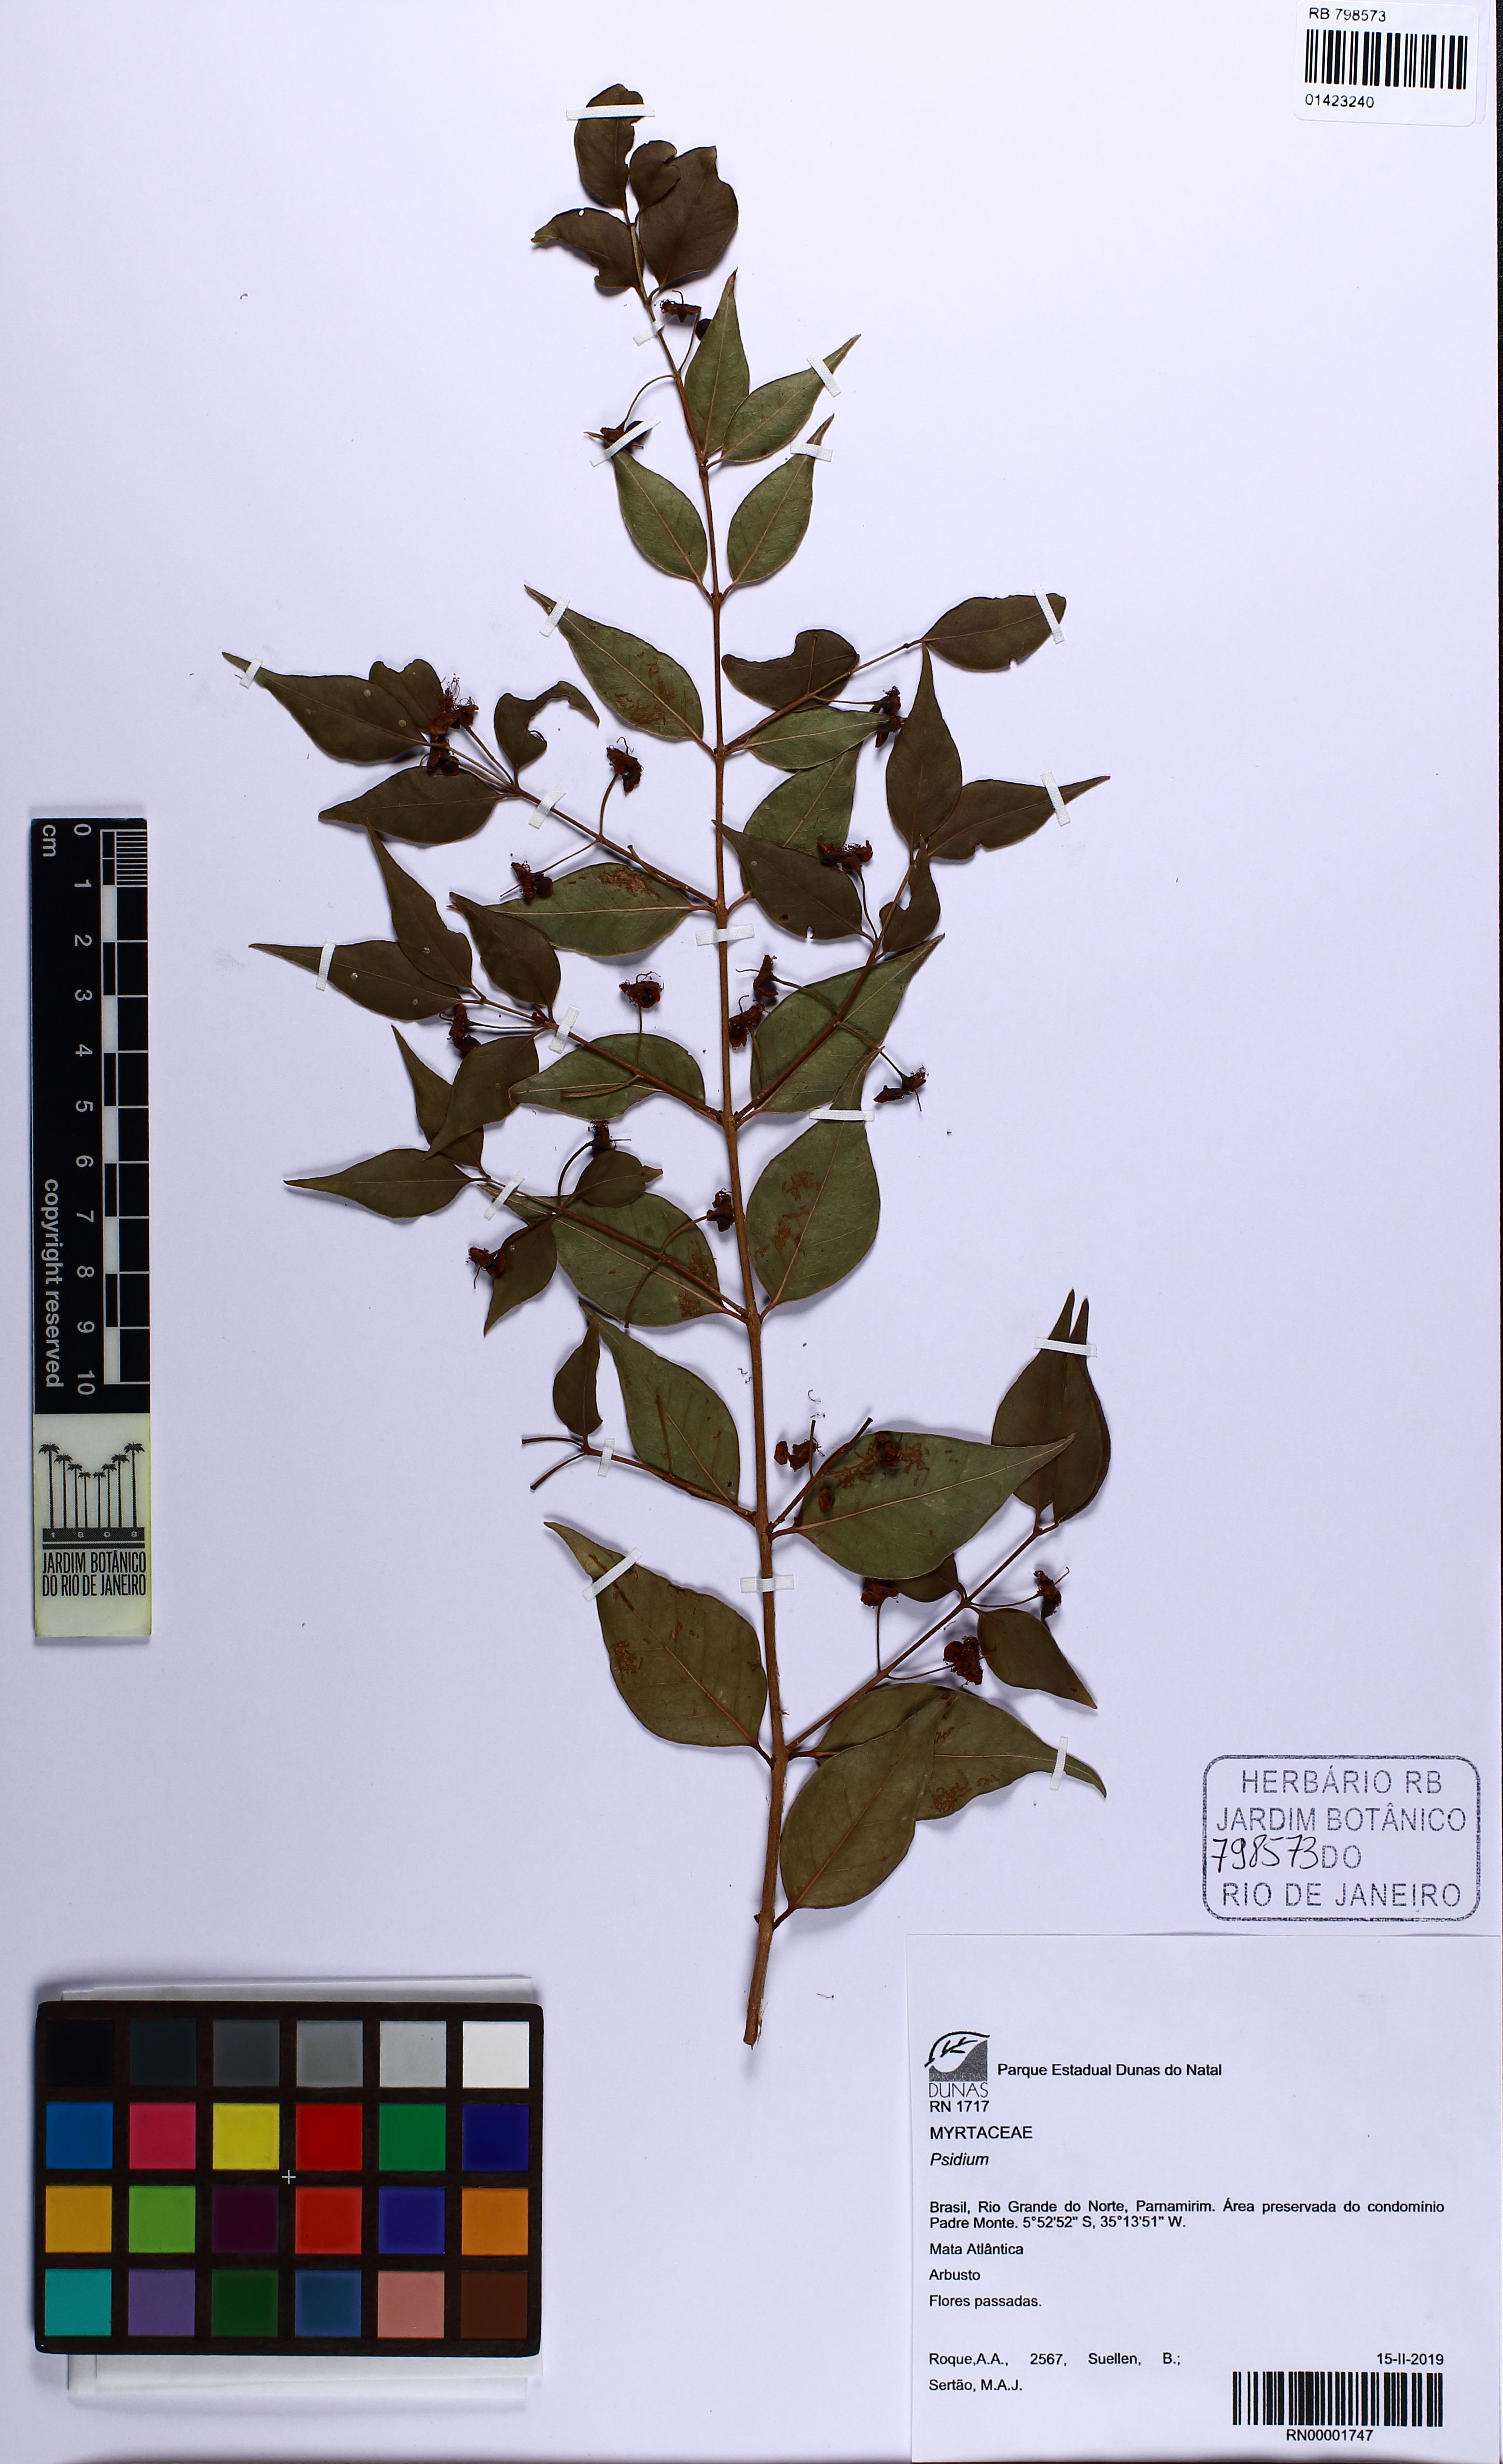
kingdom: Plantae
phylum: Tracheophyta
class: Magnoliopsida
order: Myrtales
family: Myrtaceae
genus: Psidium
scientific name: Psidium oligospermum
